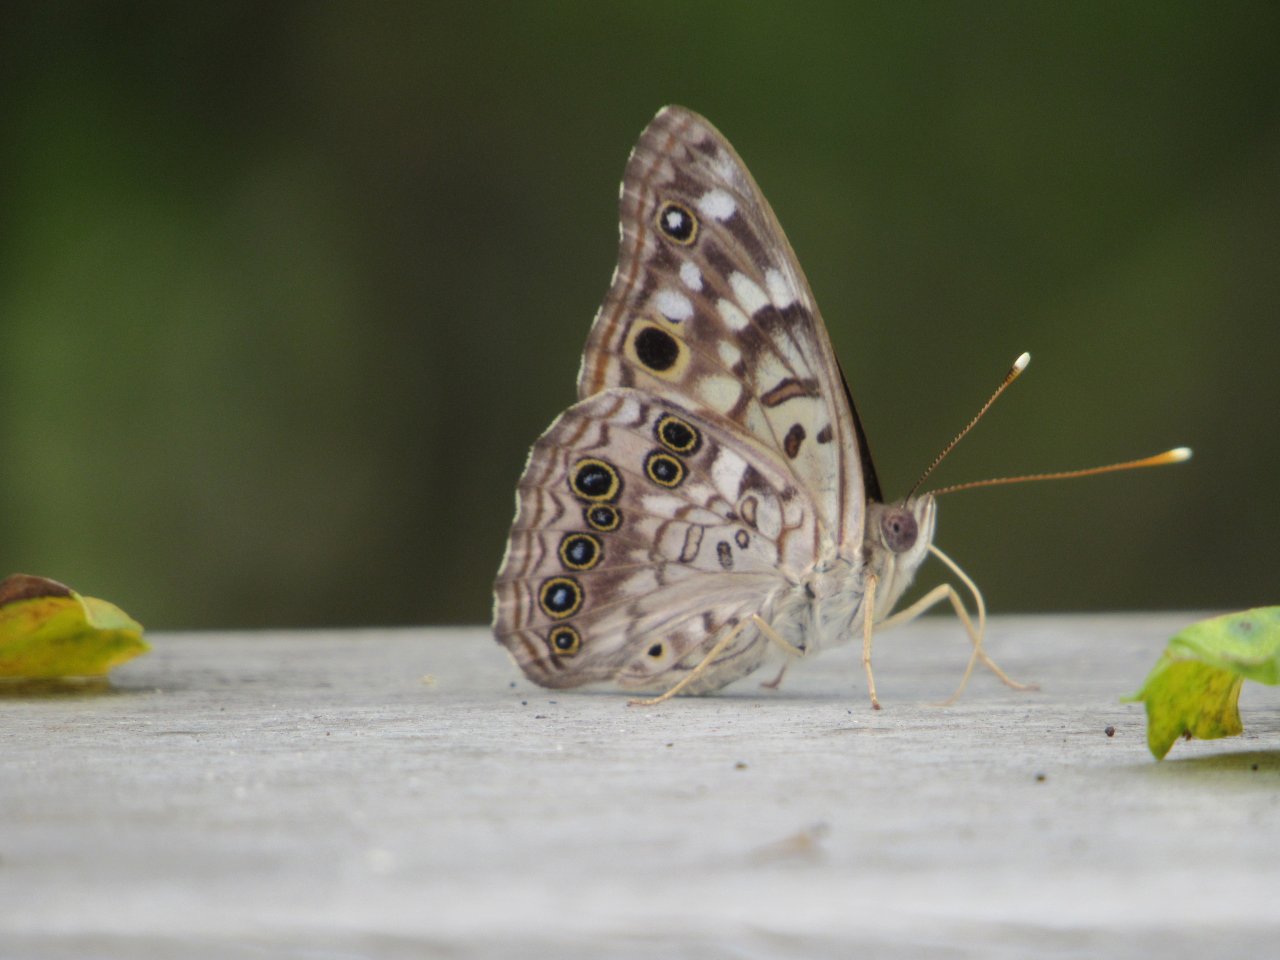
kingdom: Animalia
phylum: Arthropoda
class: Insecta
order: Lepidoptera
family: Nymphalidae
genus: Asterocampa
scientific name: Asterocampa celtis
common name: Hackberry Emperor
